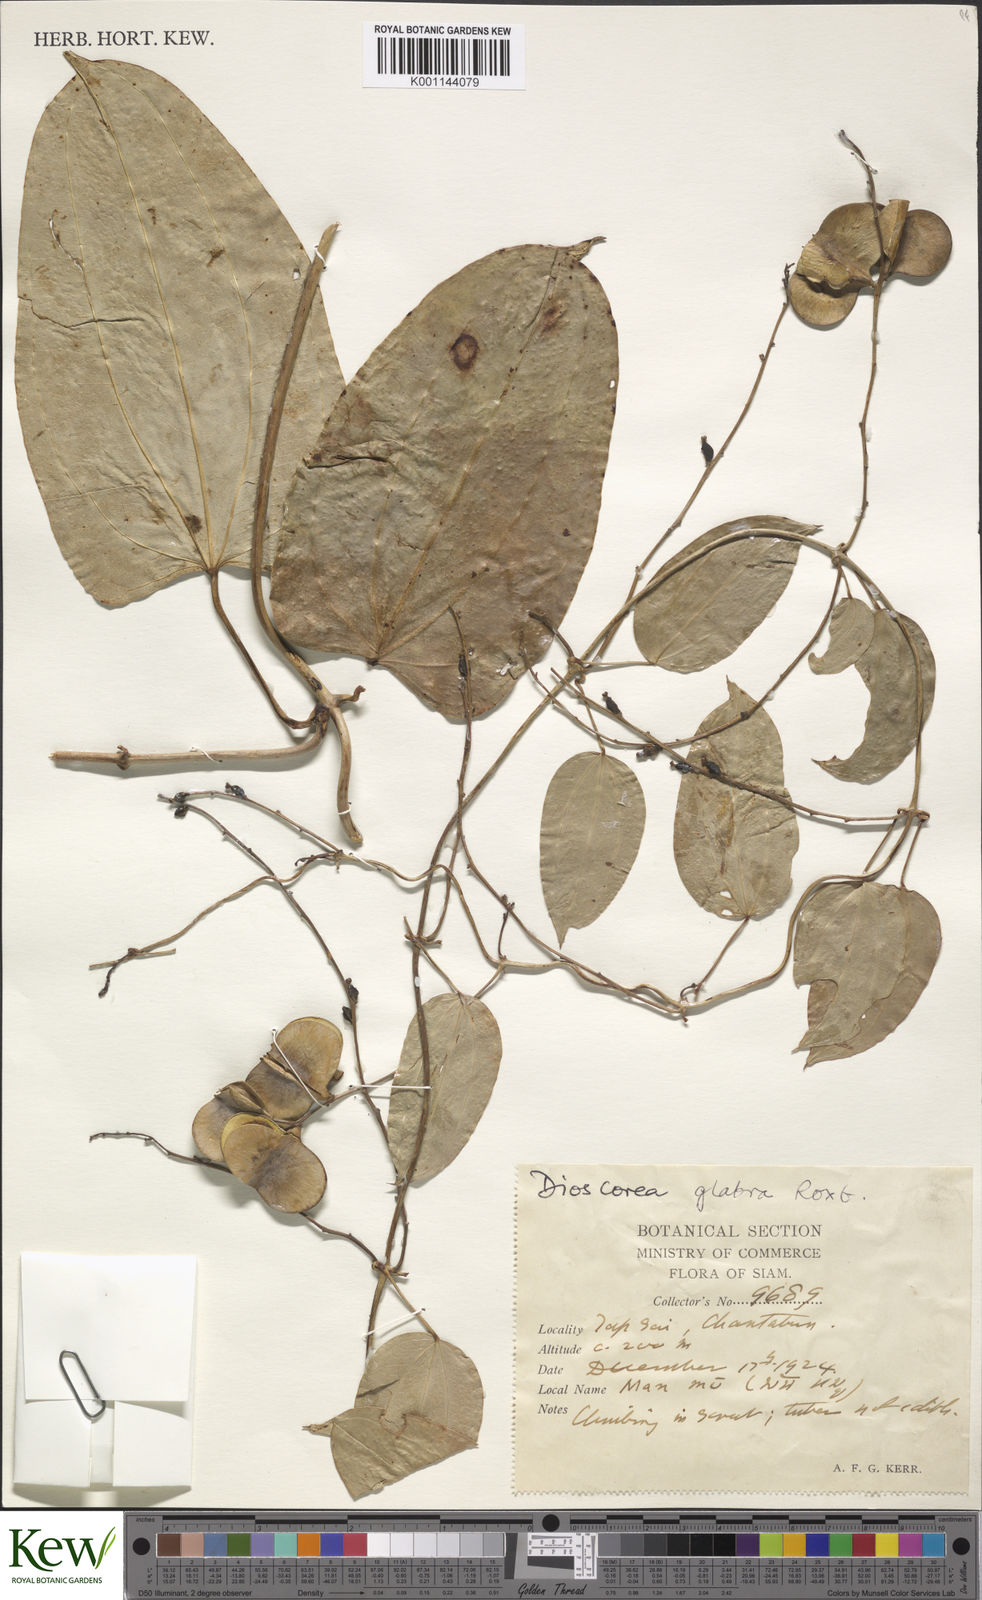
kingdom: Plantae
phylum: Tracheophyta
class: Liliopsida
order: Dioscoreales
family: Dioscoreaceae
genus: Dioscorea
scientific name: Dioscorea glabra
